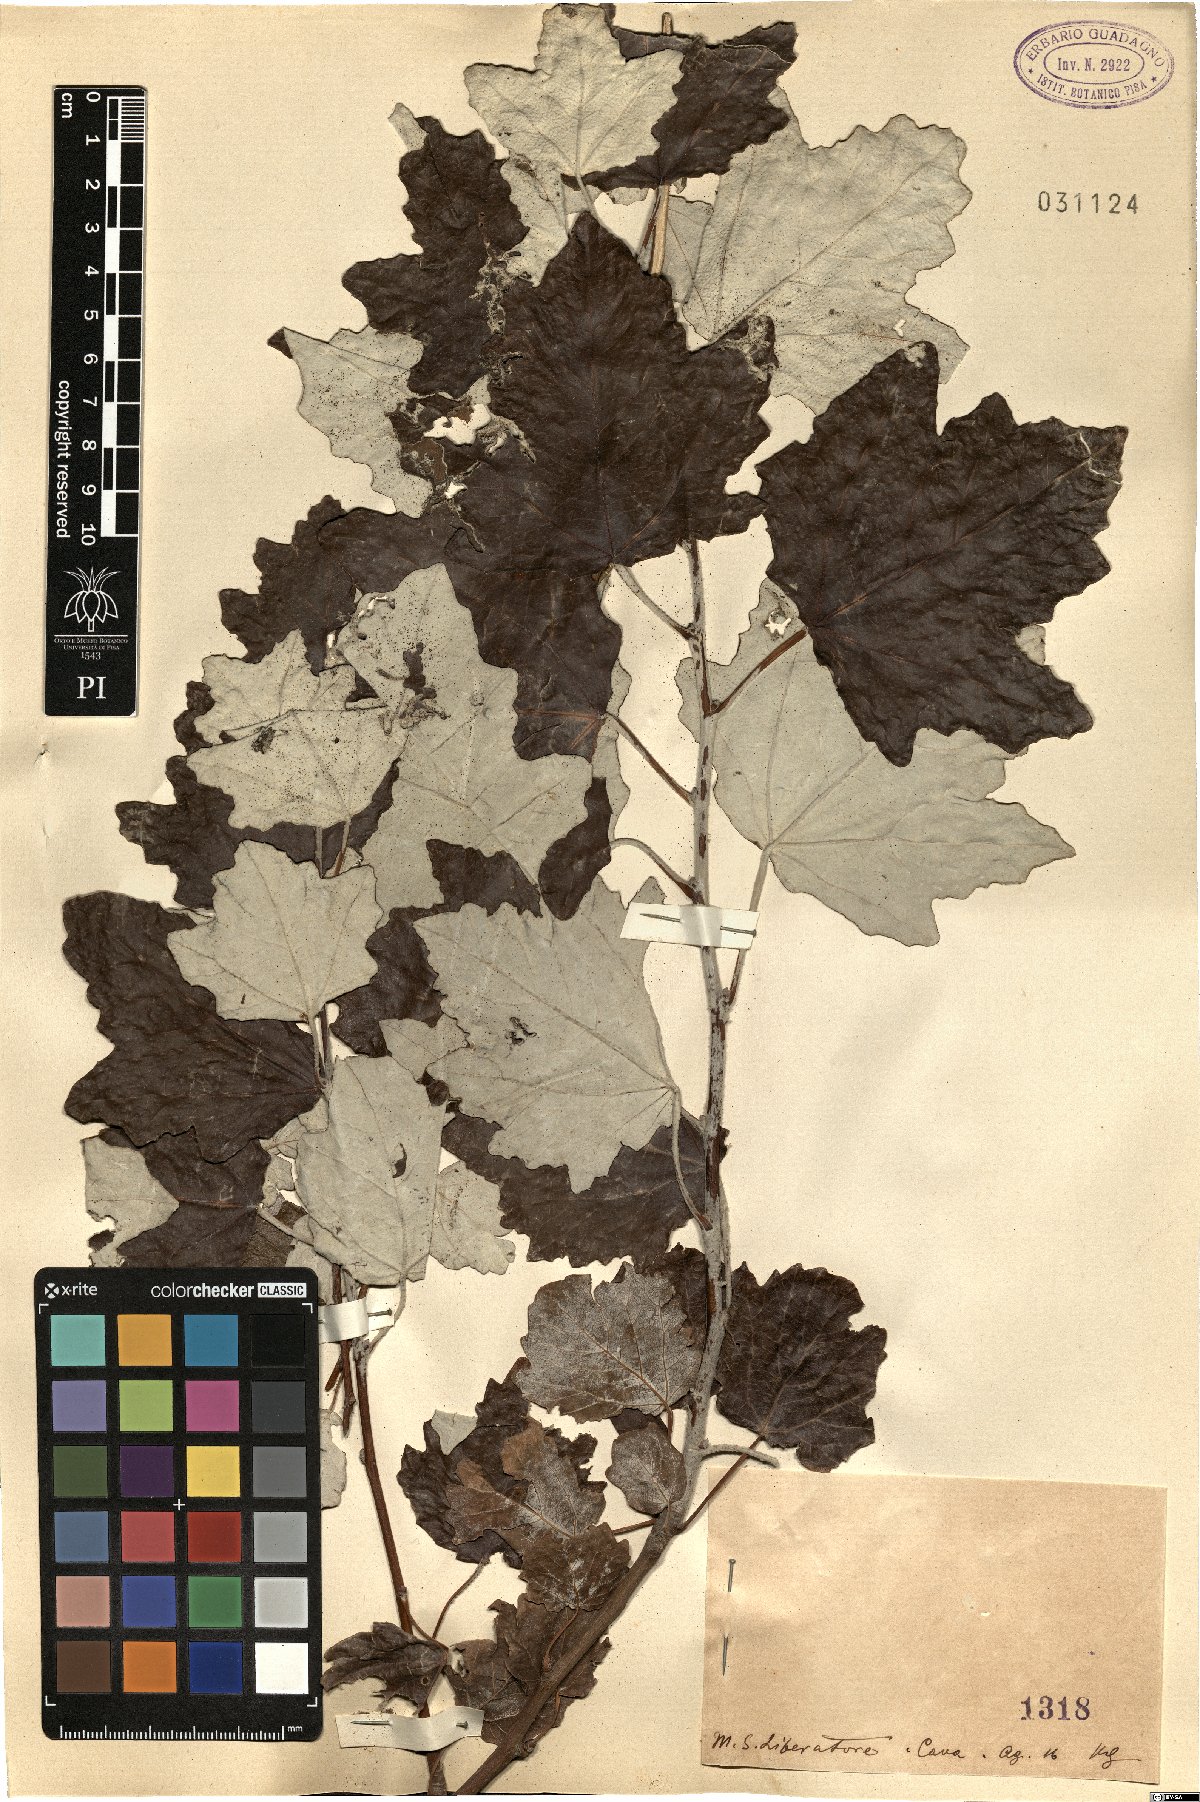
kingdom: Plantae
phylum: Tracheophyta
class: Magnoliopsida
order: Malpighiales
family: Salicaceae
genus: Populus
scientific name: Populus
